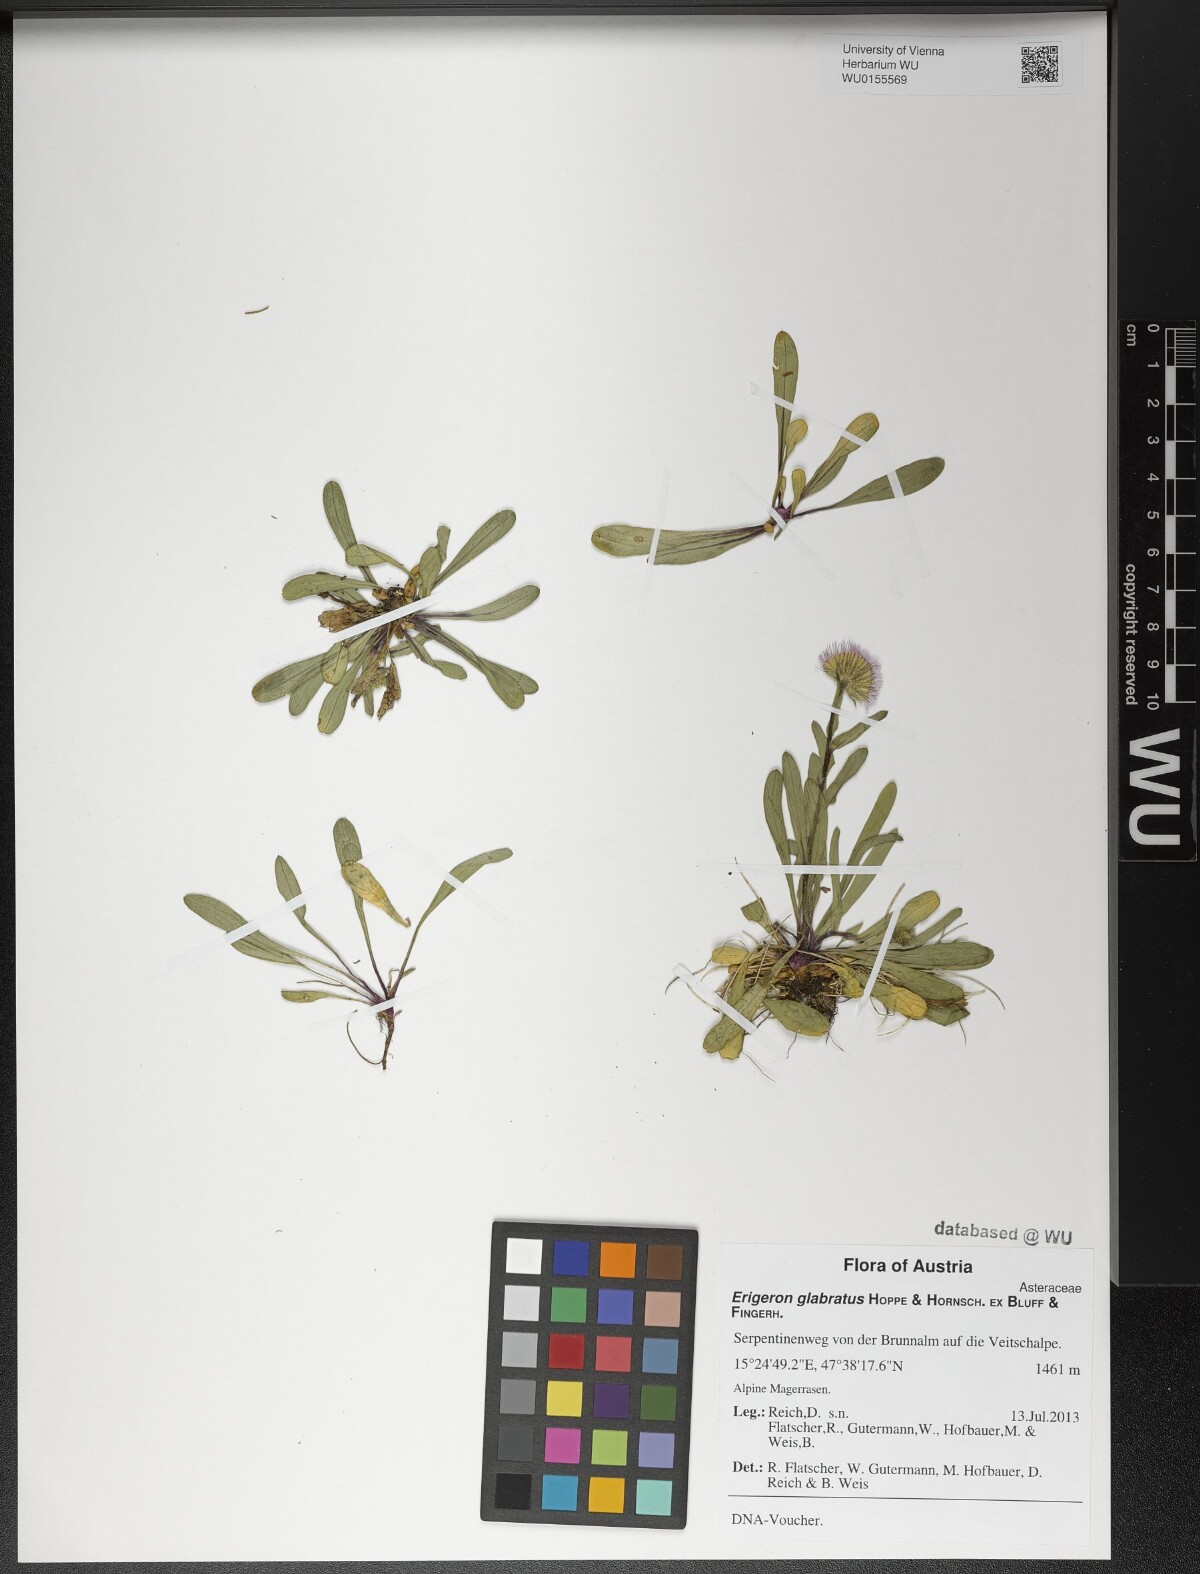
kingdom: Plantae
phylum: Tracheophyta
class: Magnoliopsida
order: Asterales
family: Asteraceae
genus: Erigeron
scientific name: Erigeron glabratus
